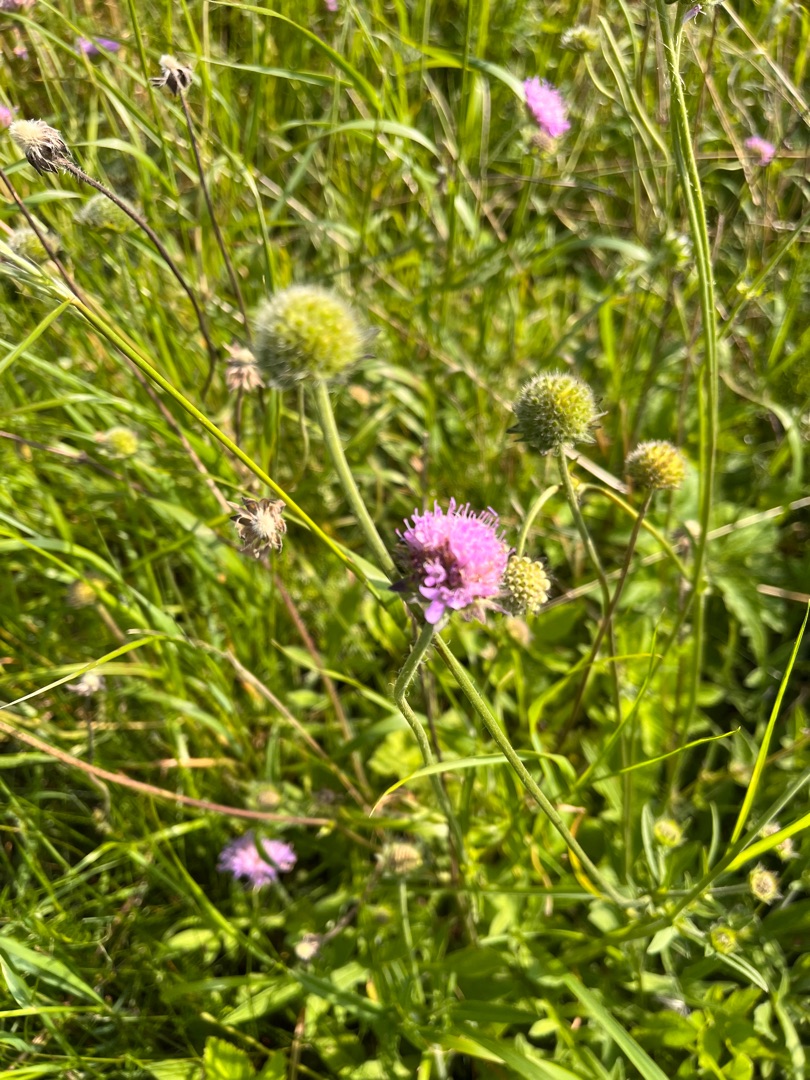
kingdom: Plantae
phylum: Tracheophyta
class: Magnoliopsida
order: Dipsacales
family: Caprifoliaceae
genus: Knautia
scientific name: Knautia arvensis
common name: Blåhat
